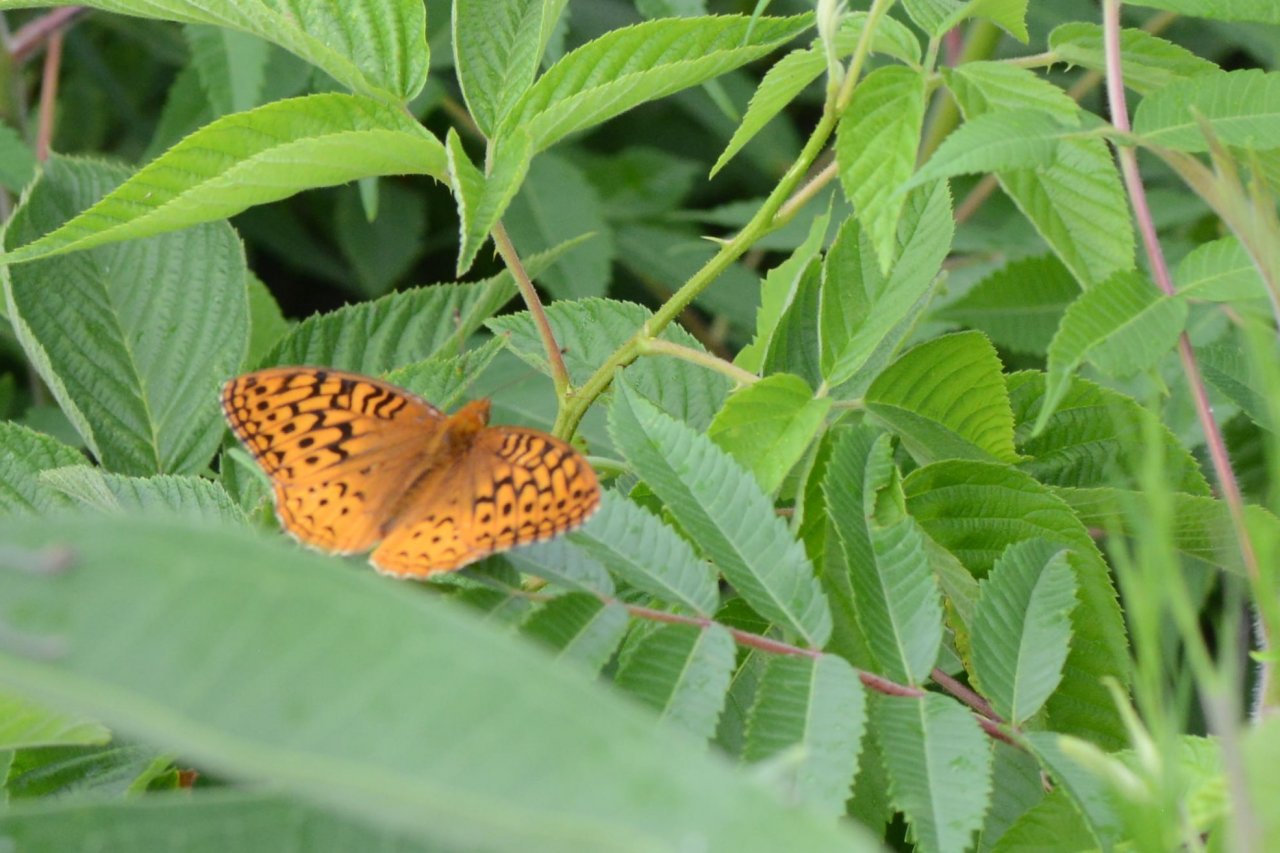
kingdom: Animalia
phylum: Arthropoda
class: Insecta
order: Lepidoptera
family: Nymphalidae
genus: Speyeria
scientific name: Speyeria cybele
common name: Great Spangled Fritillary
